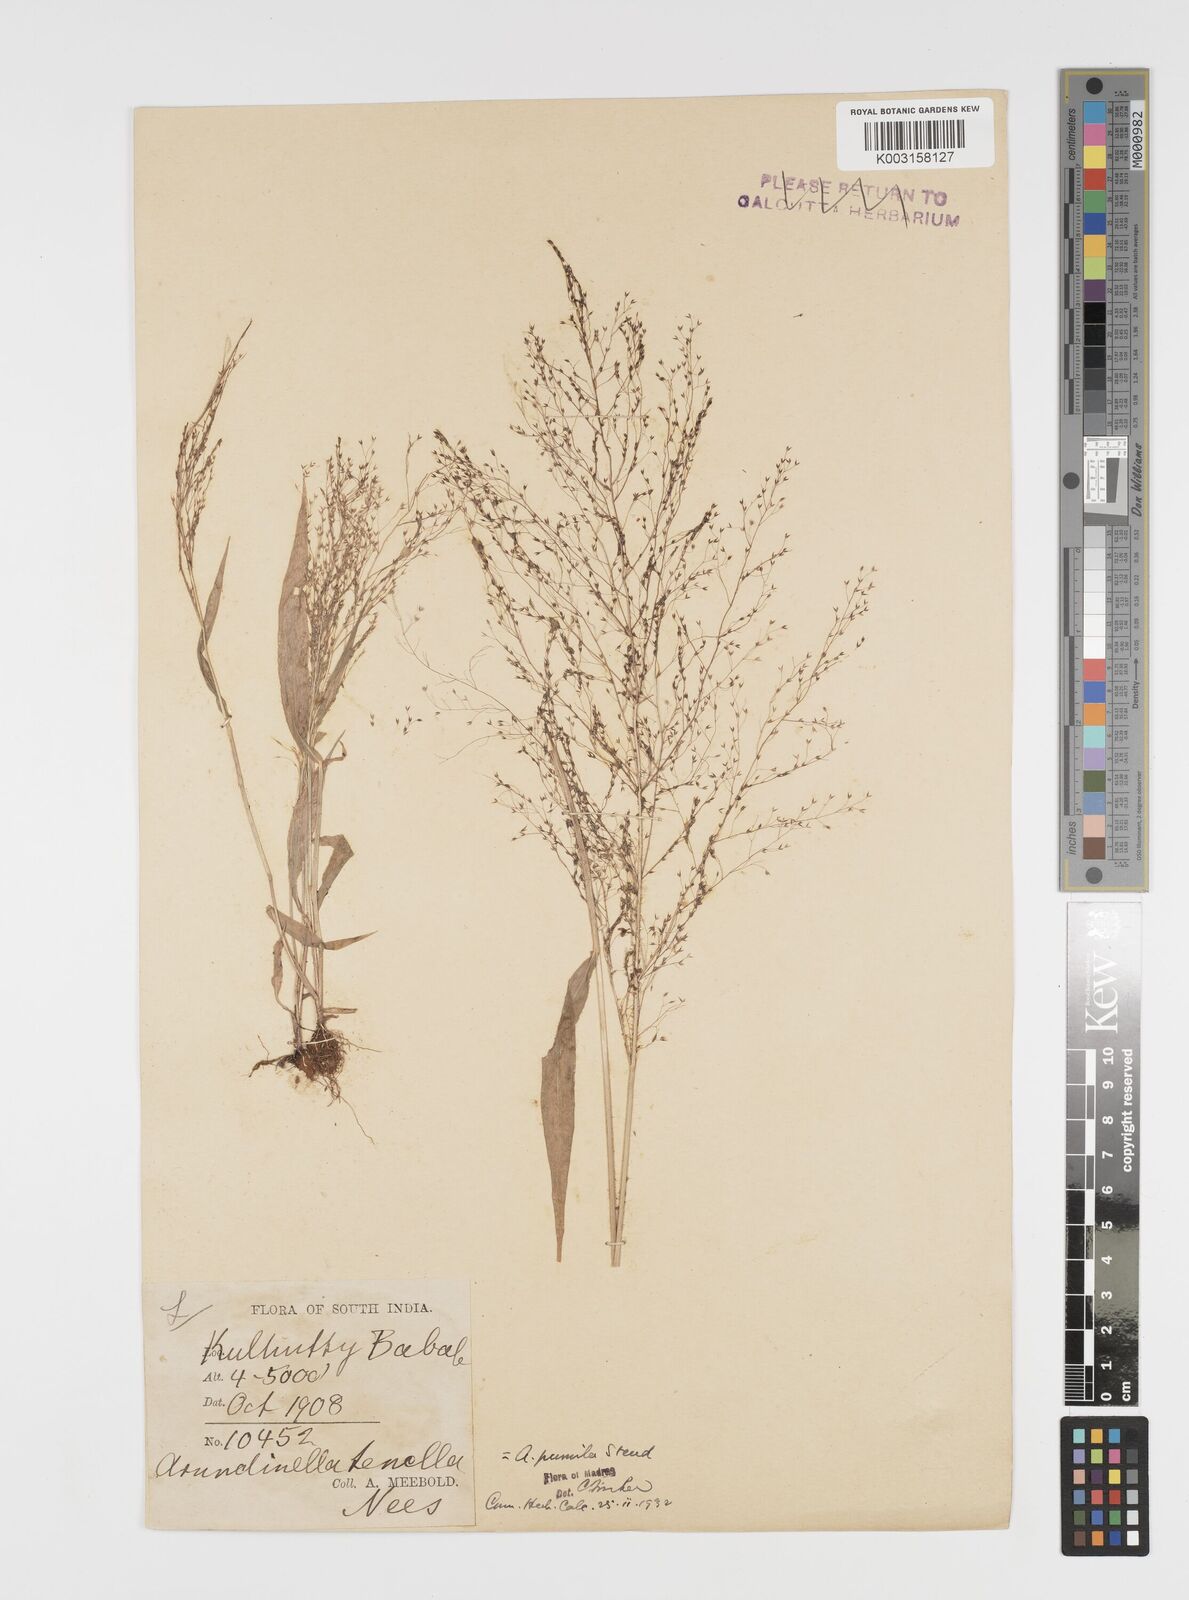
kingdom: Plantae
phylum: Tracheophyta
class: Liliopsida
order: Poales
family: Poaceae
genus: Arundinella
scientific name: Arundinella pumila
